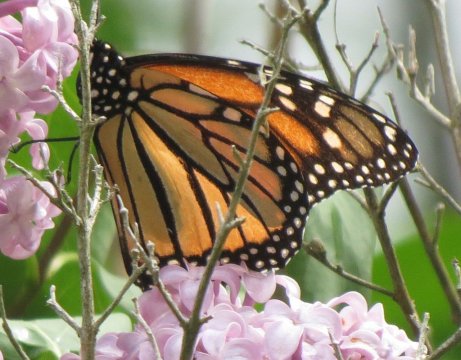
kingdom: Animalia
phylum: Arthropoda
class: Insecta
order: Lepidoptera
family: Nymphalidae
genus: Danaus
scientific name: Danaus plexippus
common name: Monarch
